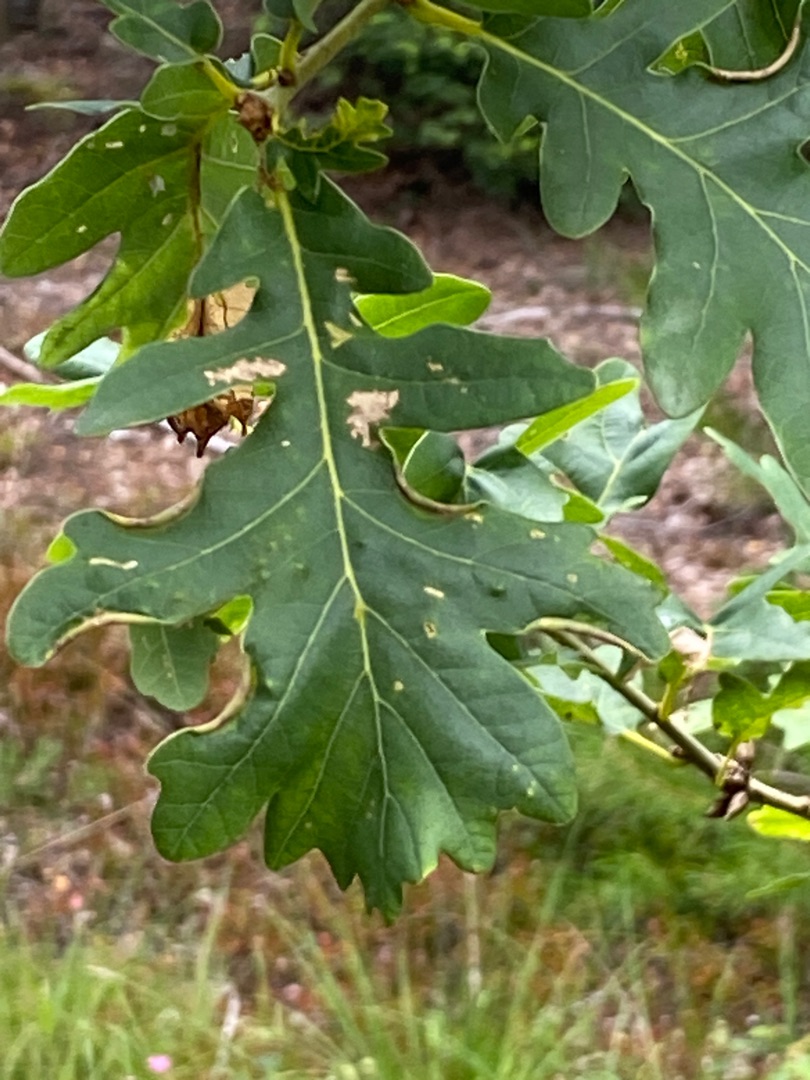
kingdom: Plantae
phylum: Tracheophyta
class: Magnoliopsida
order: Fagales
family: Fagaceae
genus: Quercus
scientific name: Quercus robur
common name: Stilk-eg/almindelig eg
